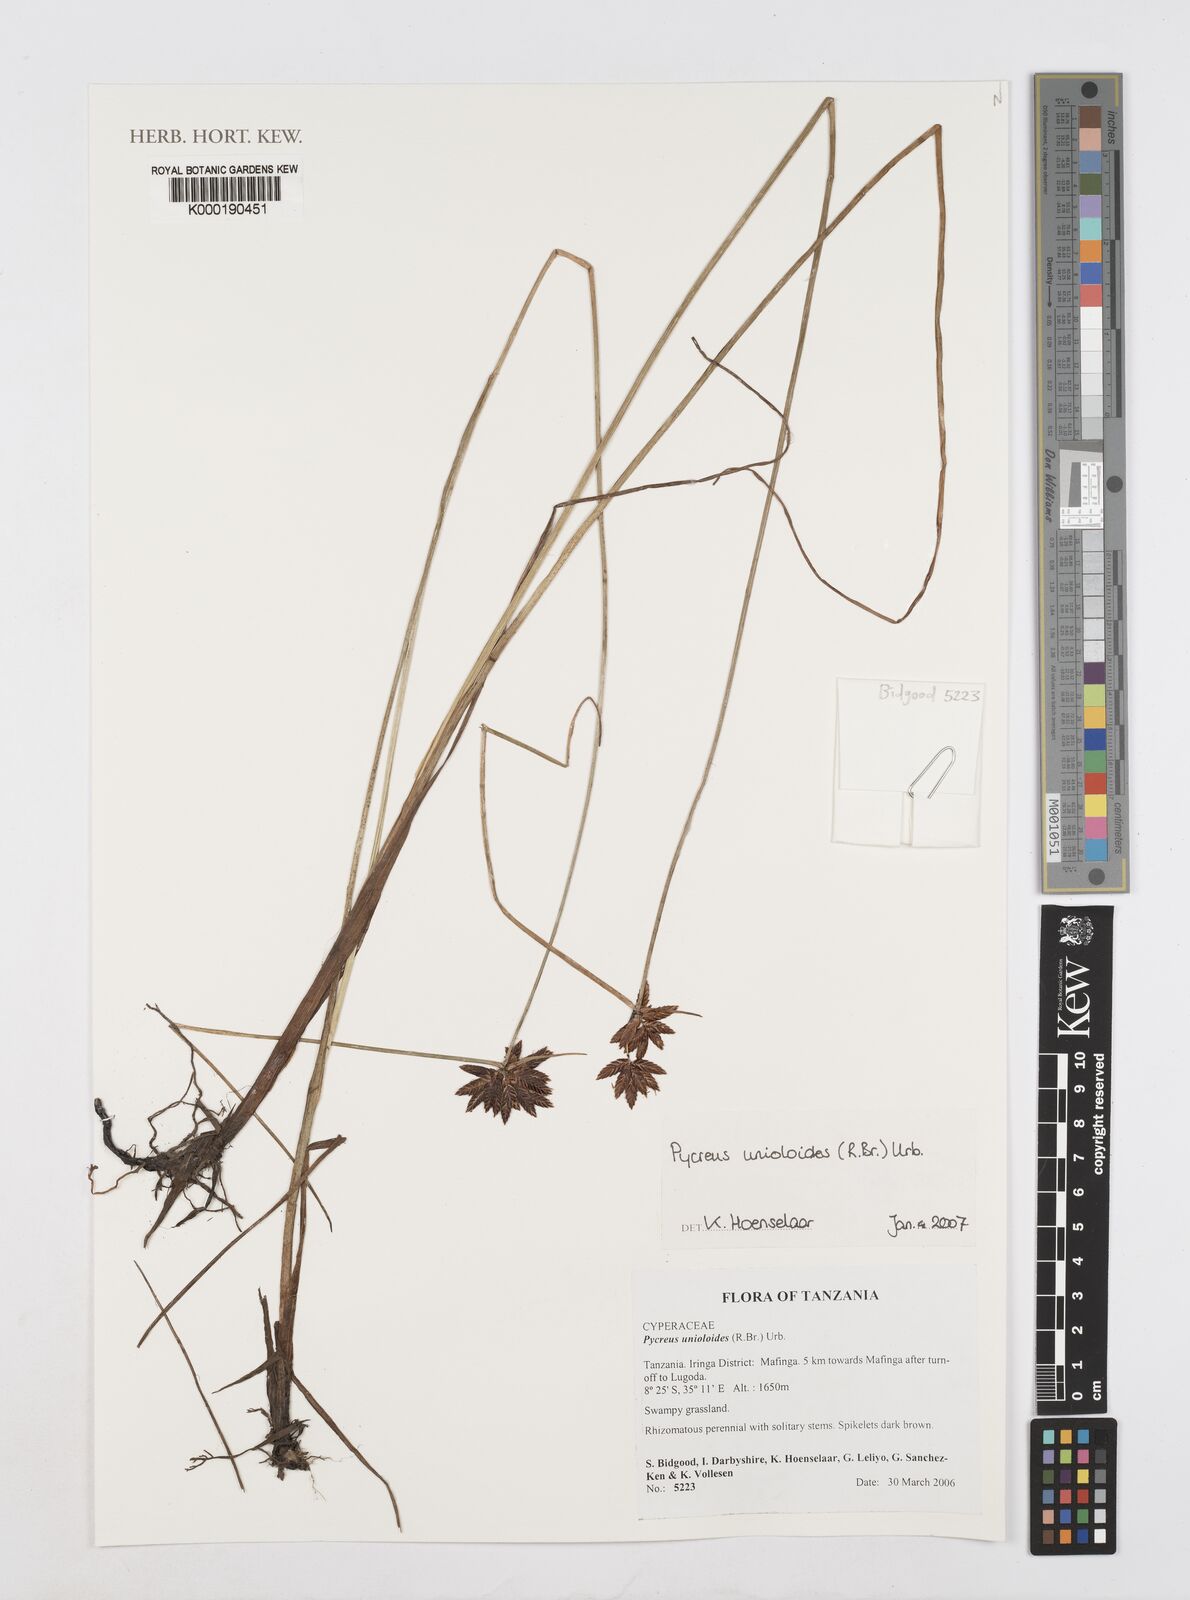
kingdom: Plantae
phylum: Tracheophyta
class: Liliopsida
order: Poales
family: Cyperaceae
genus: Cyperus
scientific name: Cyperus unioloides
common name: Uniola flatsedge
